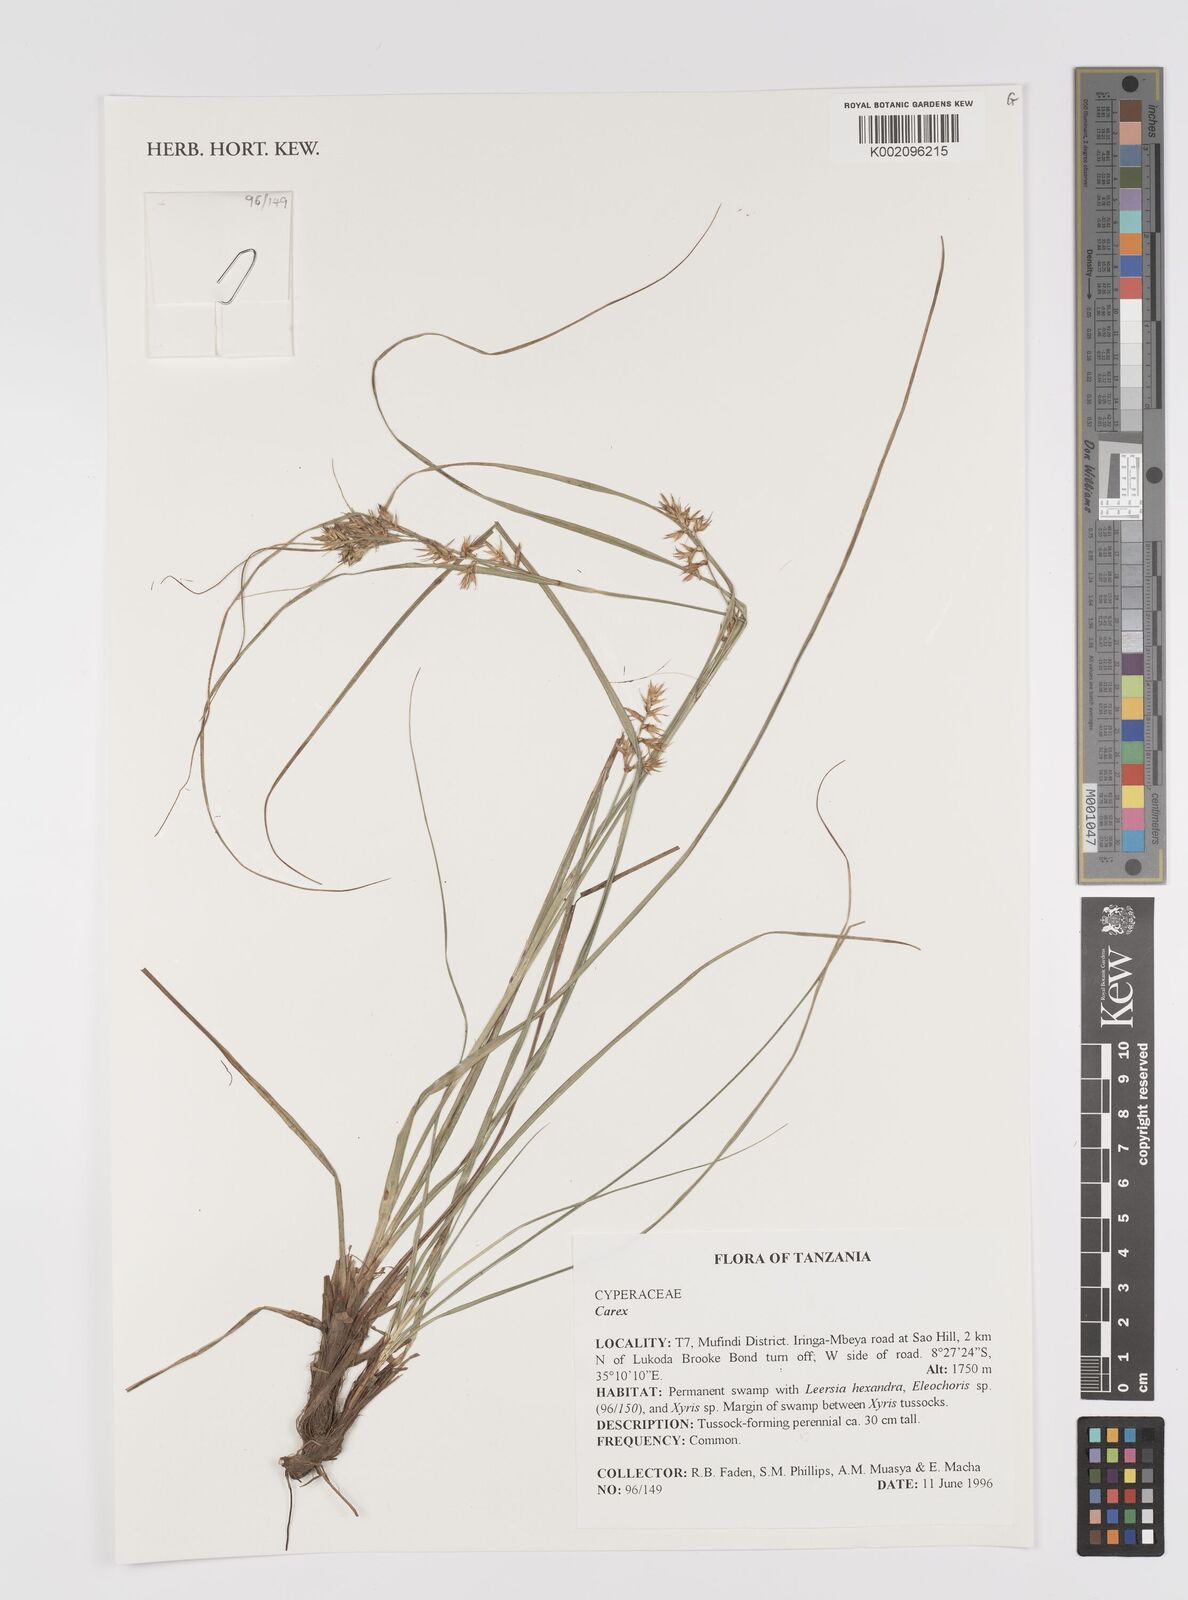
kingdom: Plantae
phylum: Tracheophyta
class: Liliopsida
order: Poales
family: Cyperaceae
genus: Carex
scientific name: Carex
